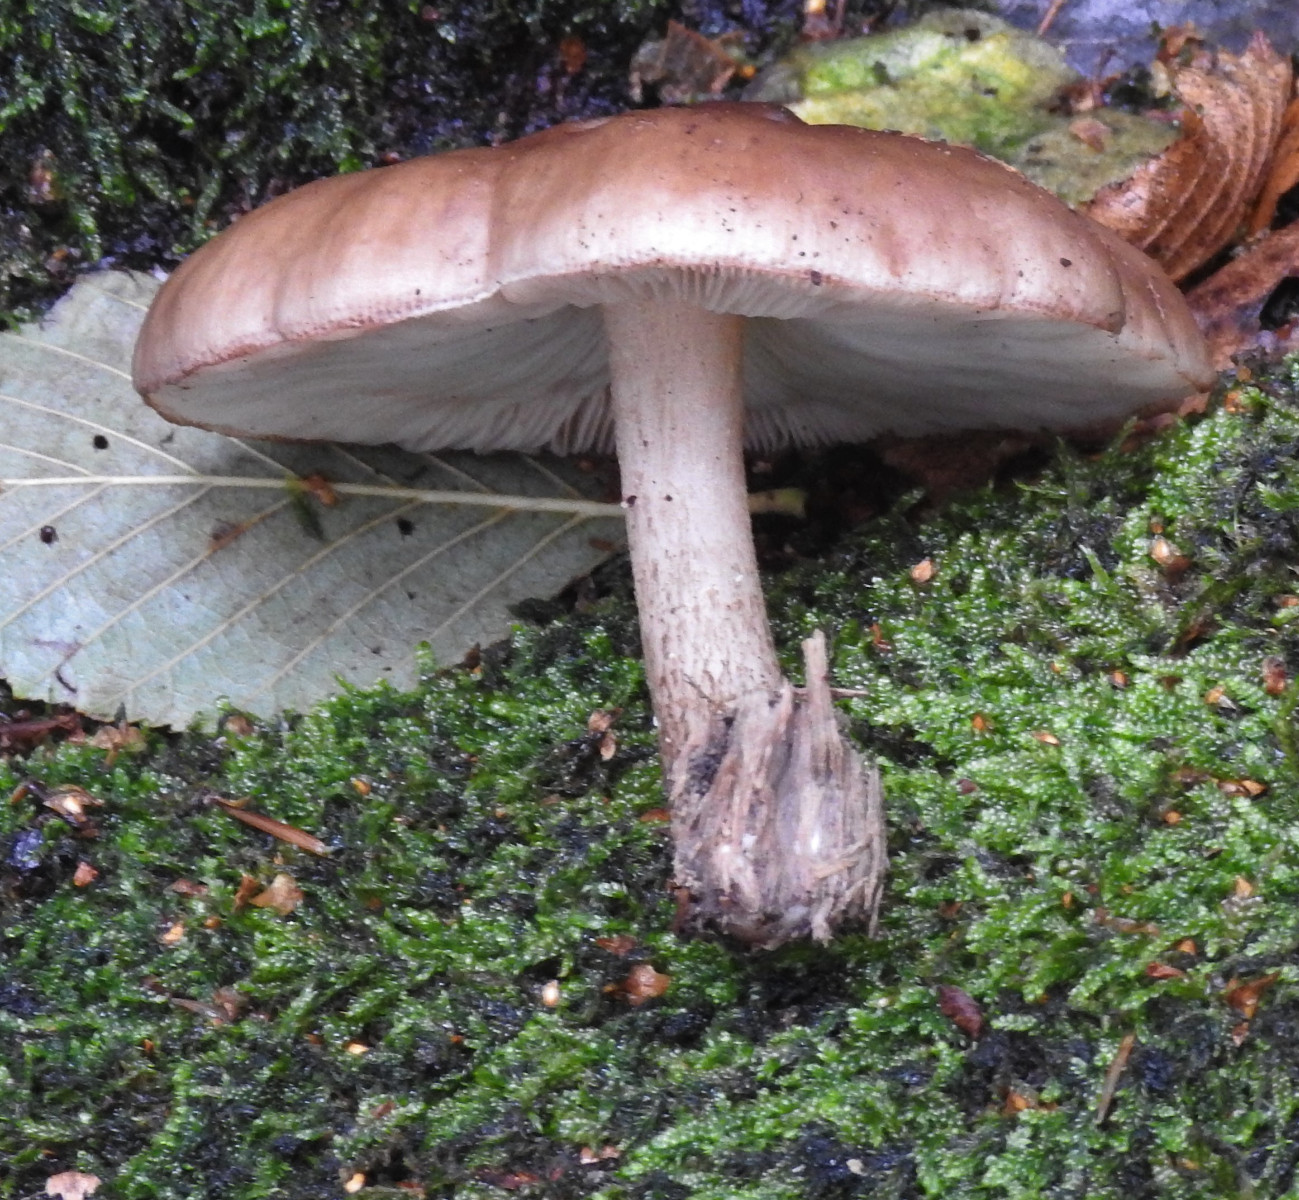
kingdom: Fungi
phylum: Basidiomycota
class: Agaricomycetes
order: Agaricales
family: Pluteaceae
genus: Pluteus
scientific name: Pluteus cervinus
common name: sodfarvet skærmhat
